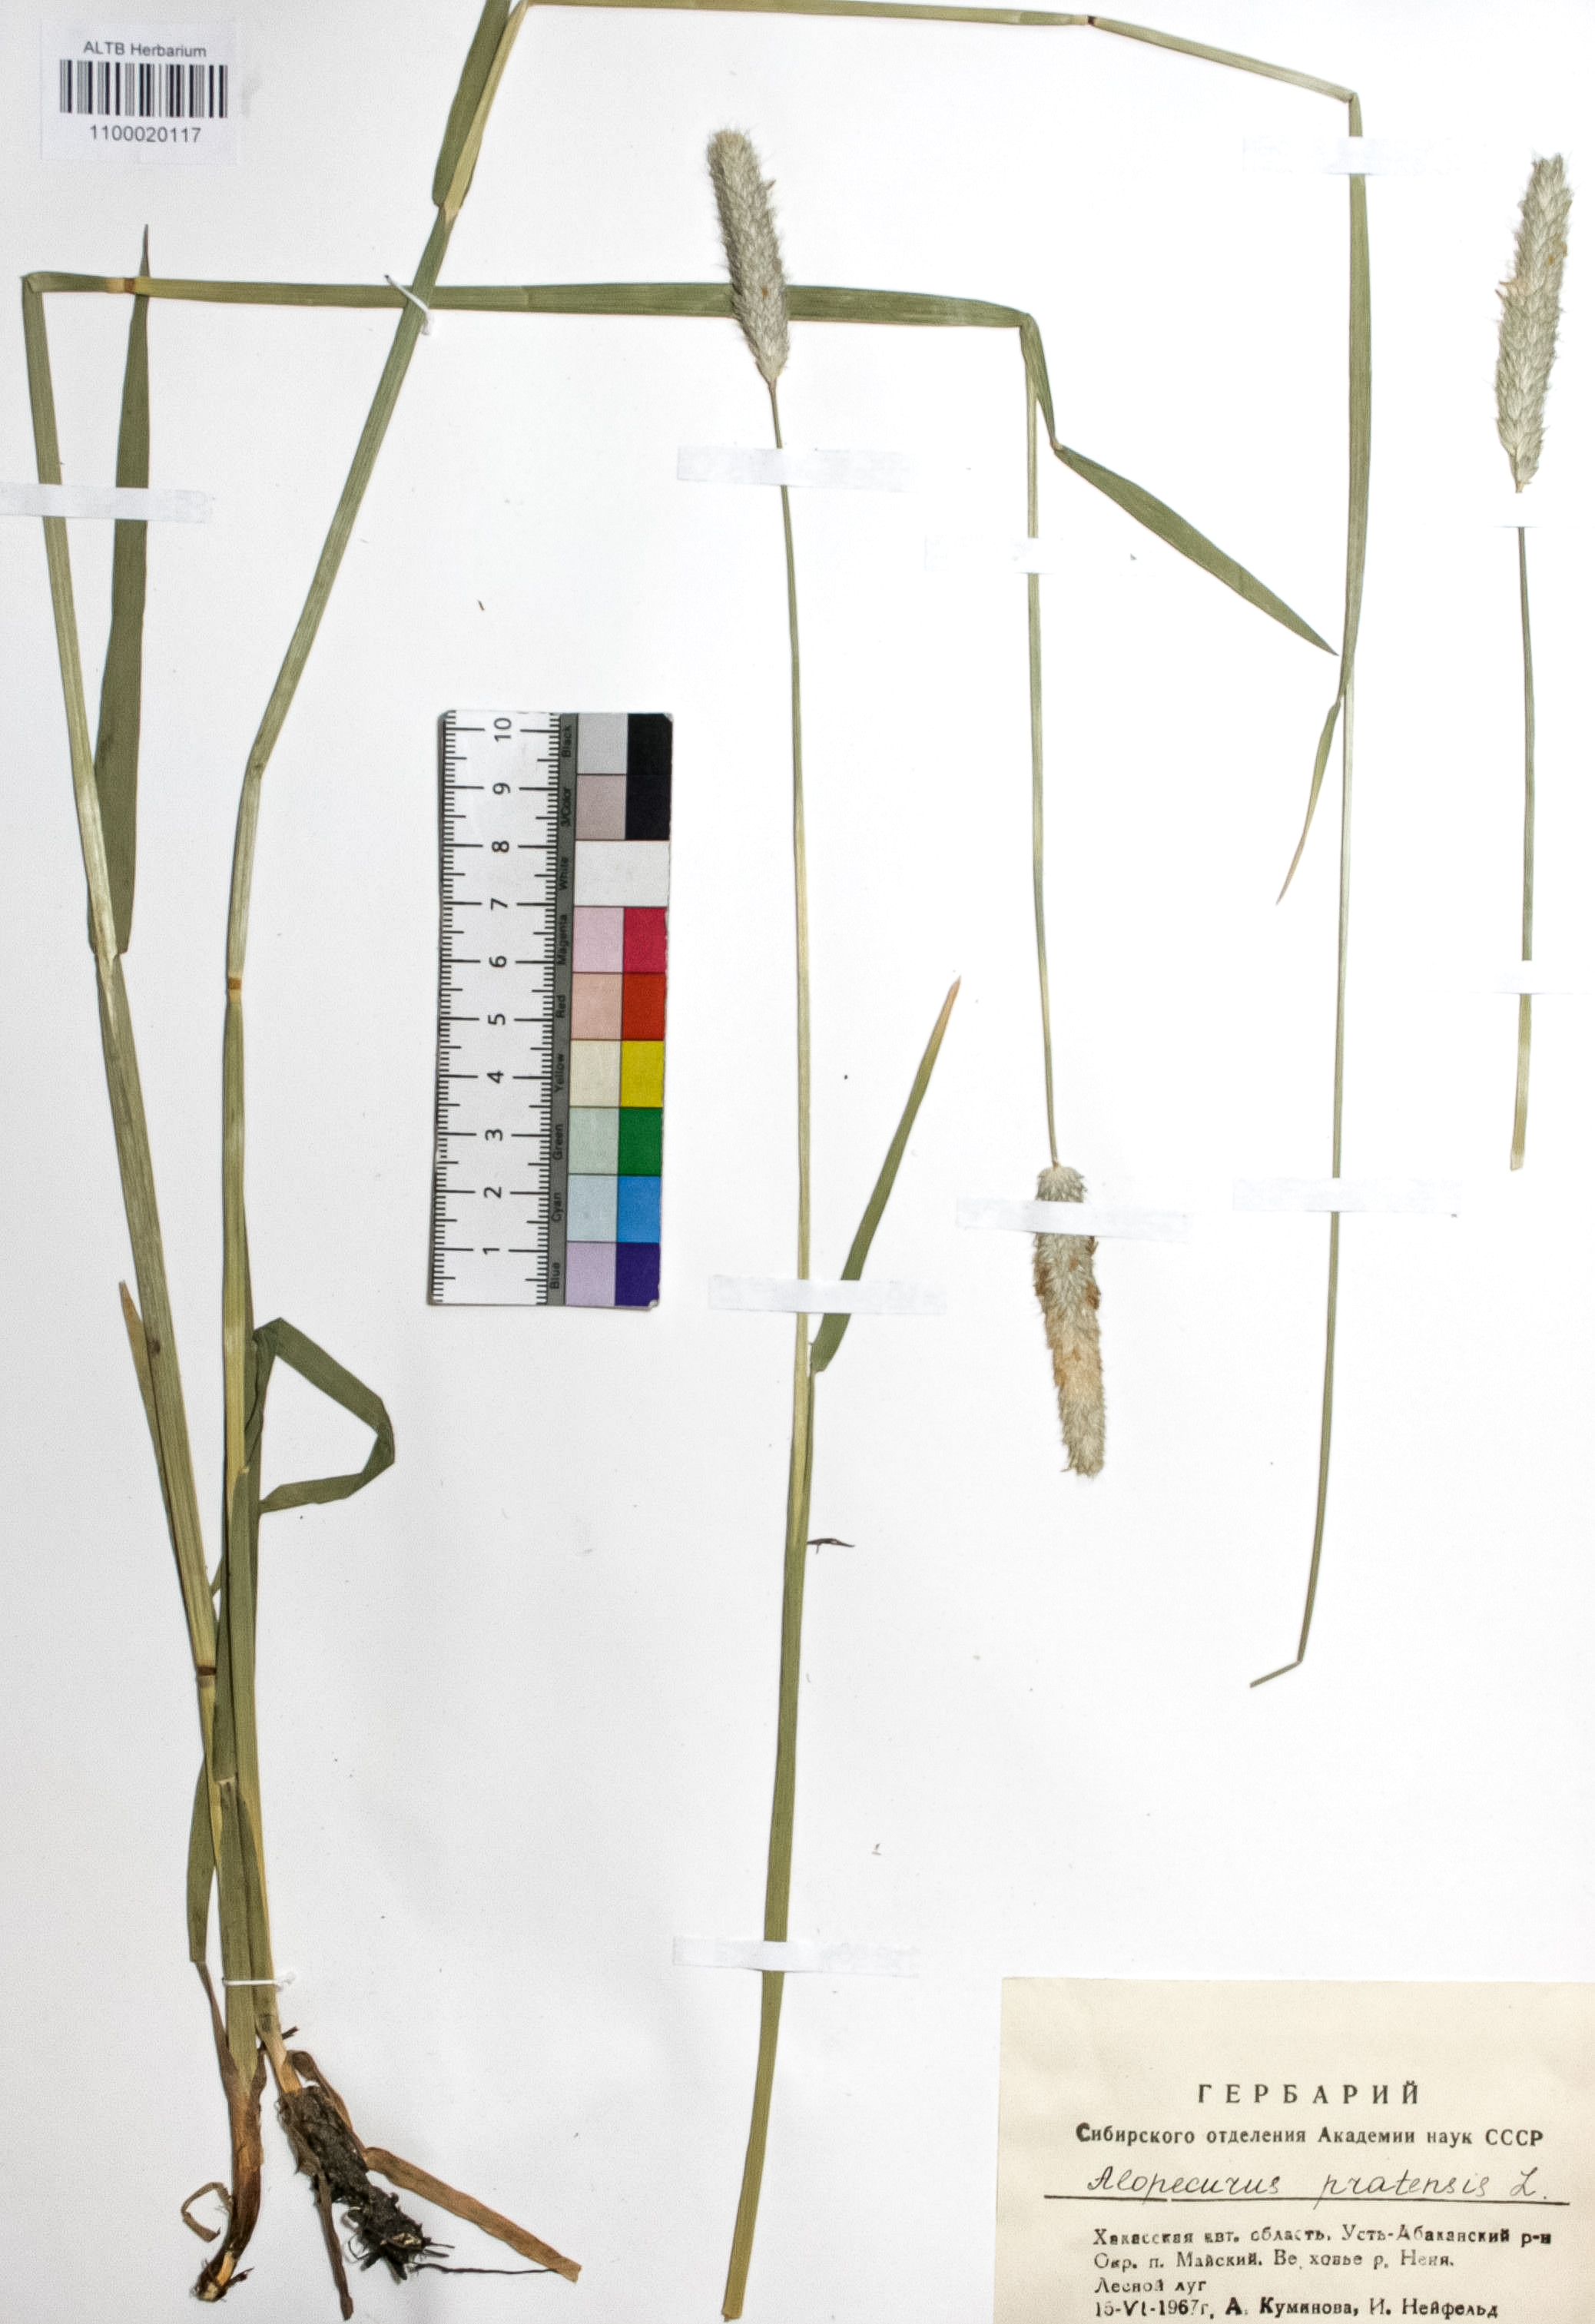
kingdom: Plantae
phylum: Tracheophyta
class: Liliopsida
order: Poales
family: Poaceae
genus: Alopecurus
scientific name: Alopecurus pratensis
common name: Meadow foxtail
